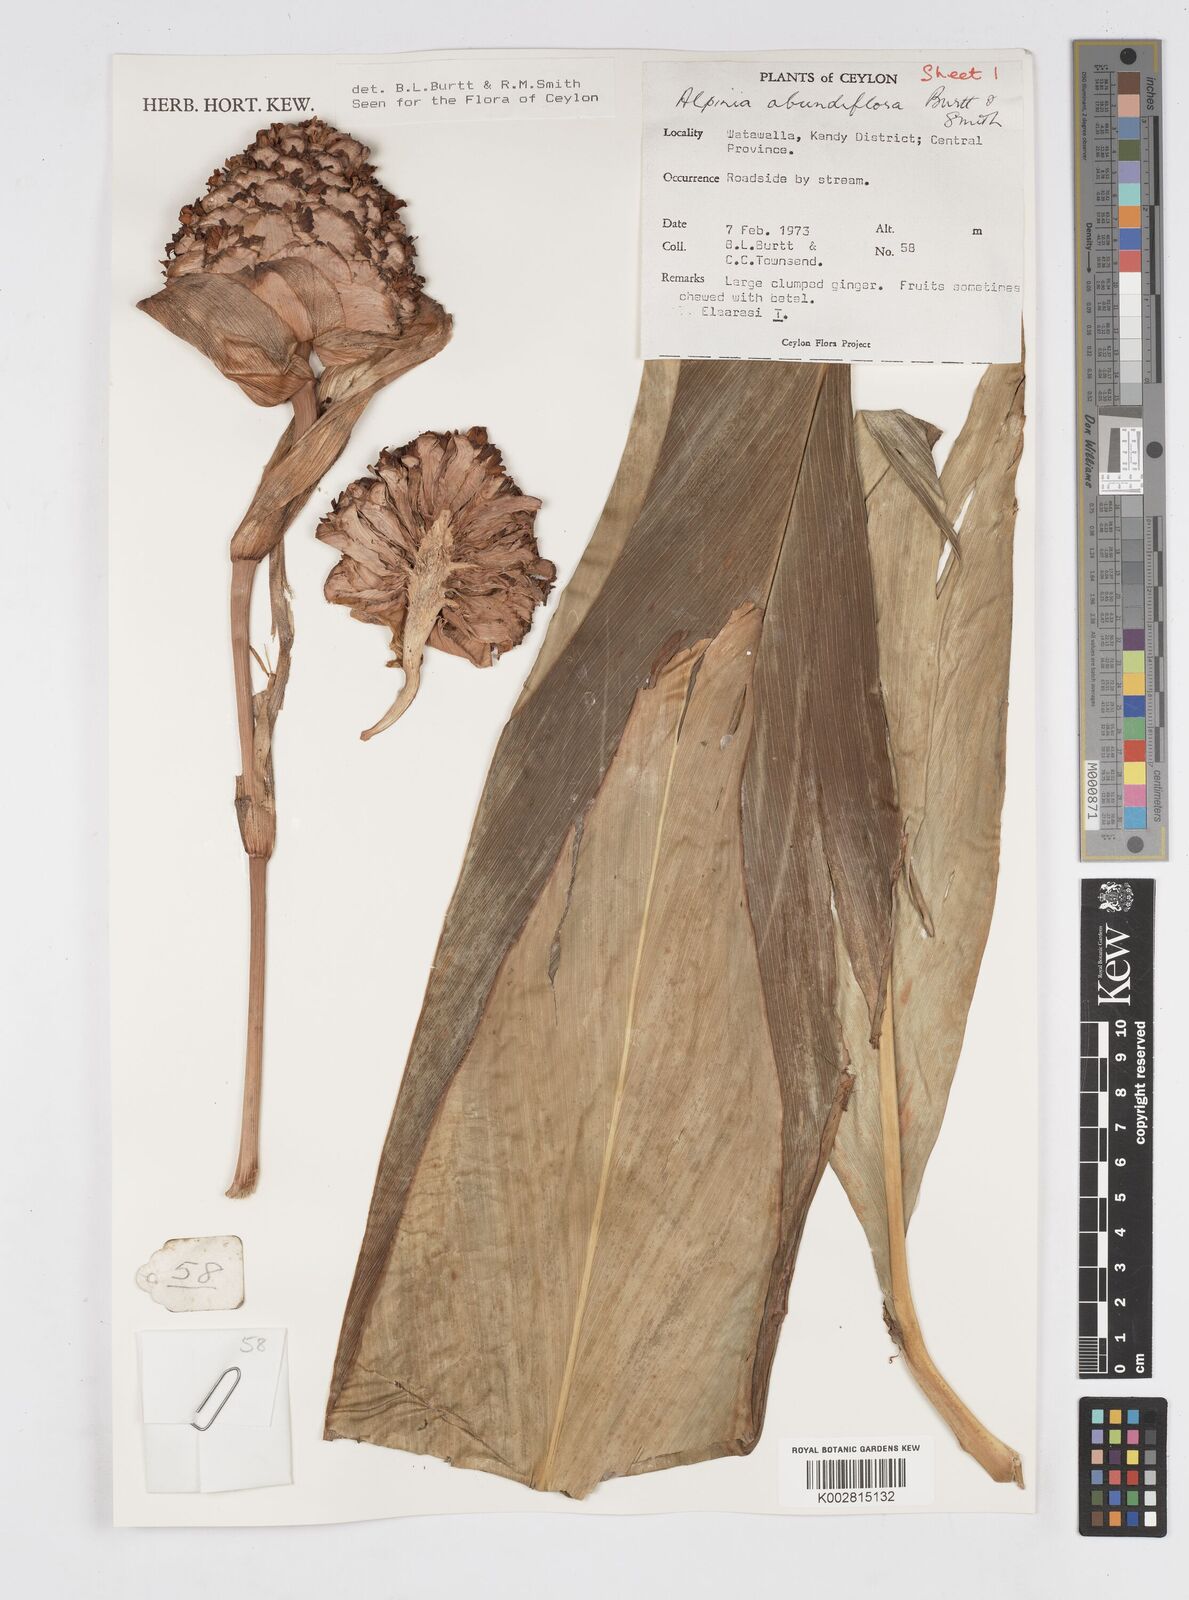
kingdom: Plantae
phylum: Tracheophyta
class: Liliopsida
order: Zingiberales
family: Zingiberaceae
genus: Alpinia
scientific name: Alpinia abundiflora
